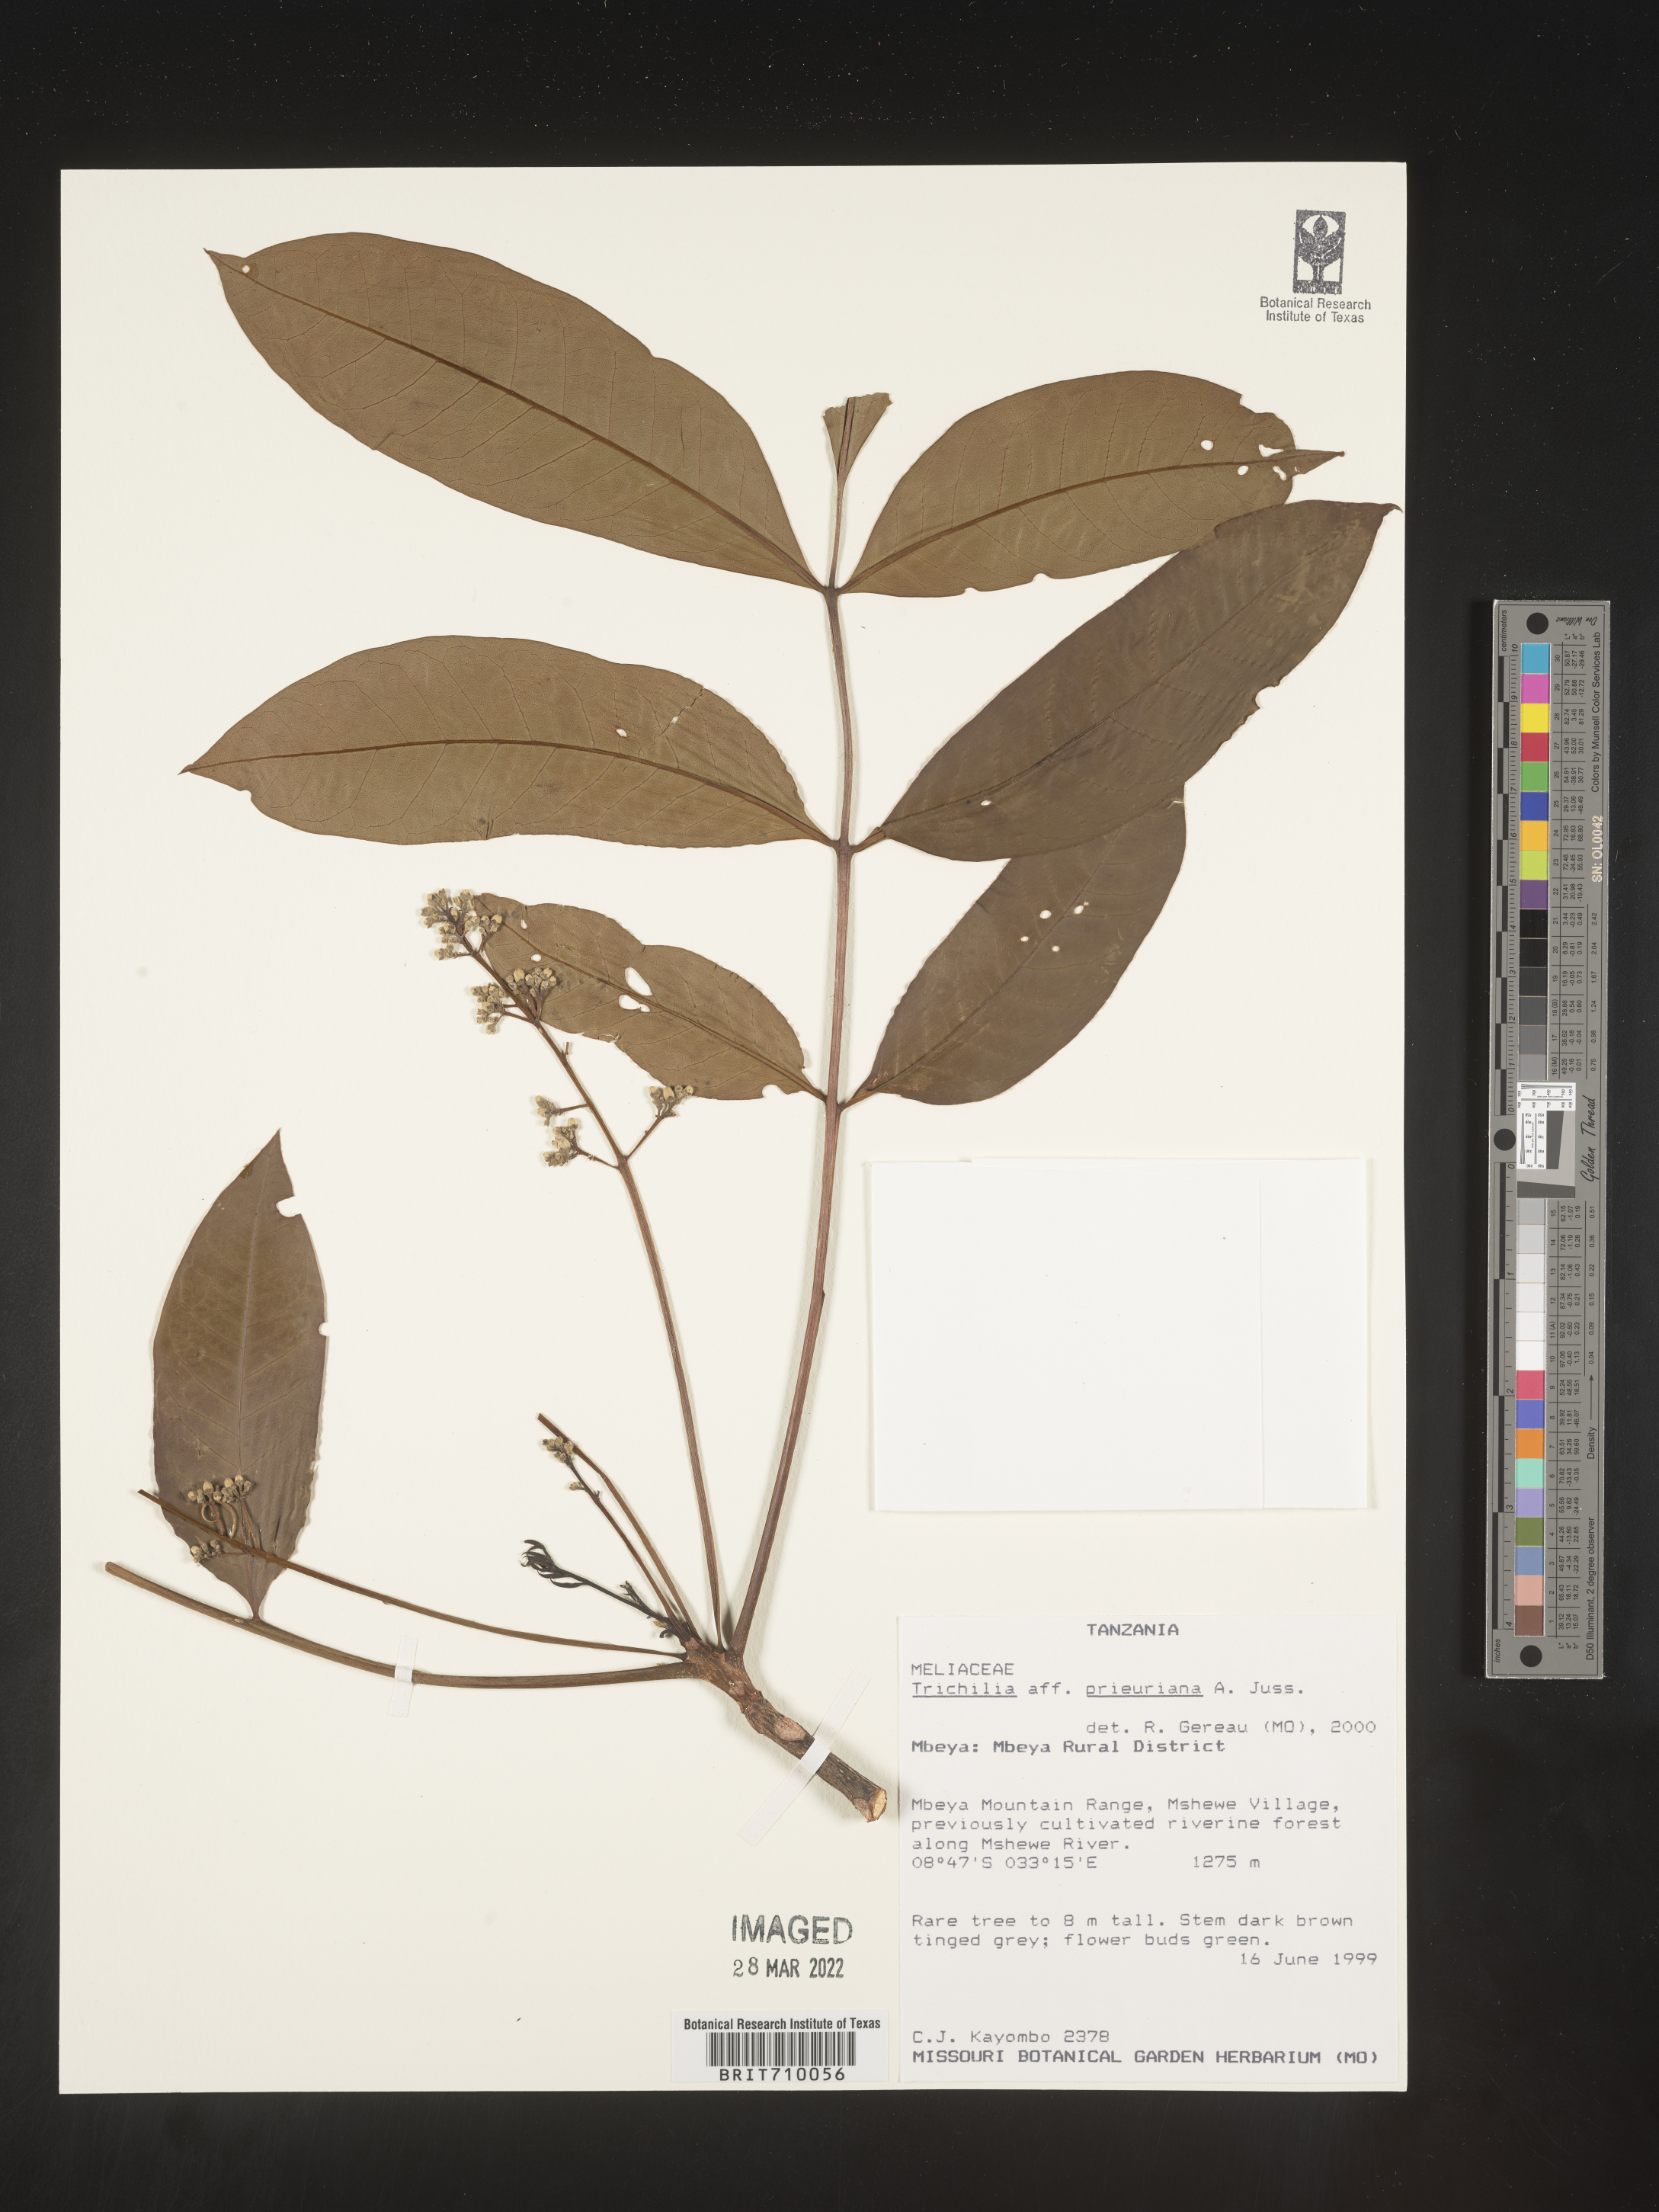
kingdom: Plantae
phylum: Tracheophyta
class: Magnoliopsida
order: Sapindales
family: Meliaceae
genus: Trichilia
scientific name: Trichilia
